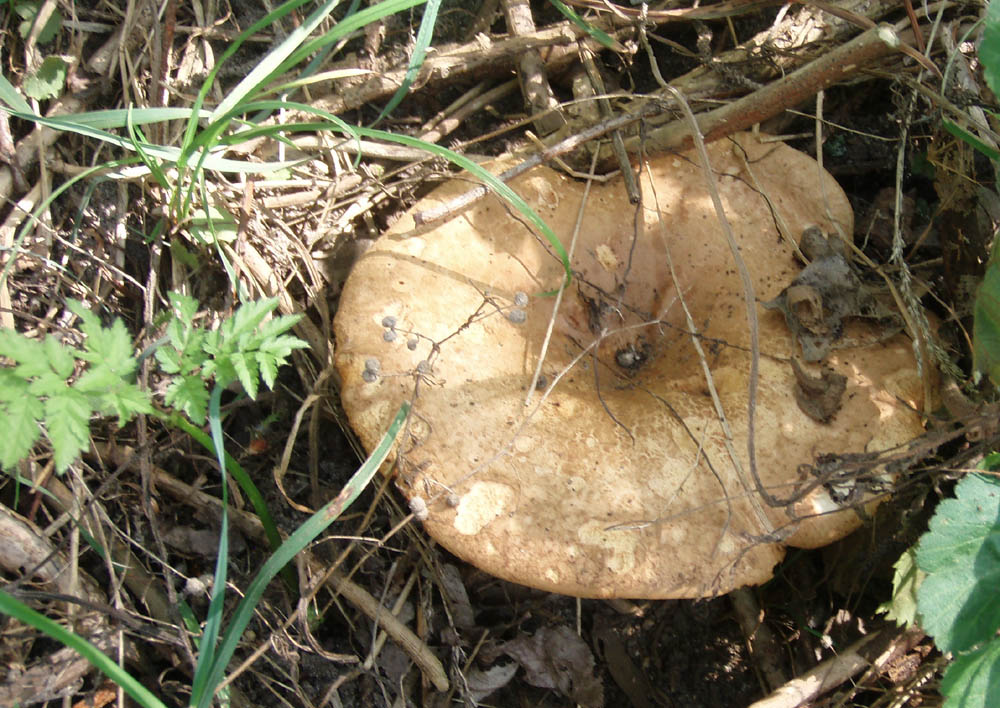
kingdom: Fungi
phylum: Basidiomycota
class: Agaricomycetes
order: Boletales
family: Paxillaceae
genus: Paxillus
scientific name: Paxillus involutus
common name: almindelig netbladhat
